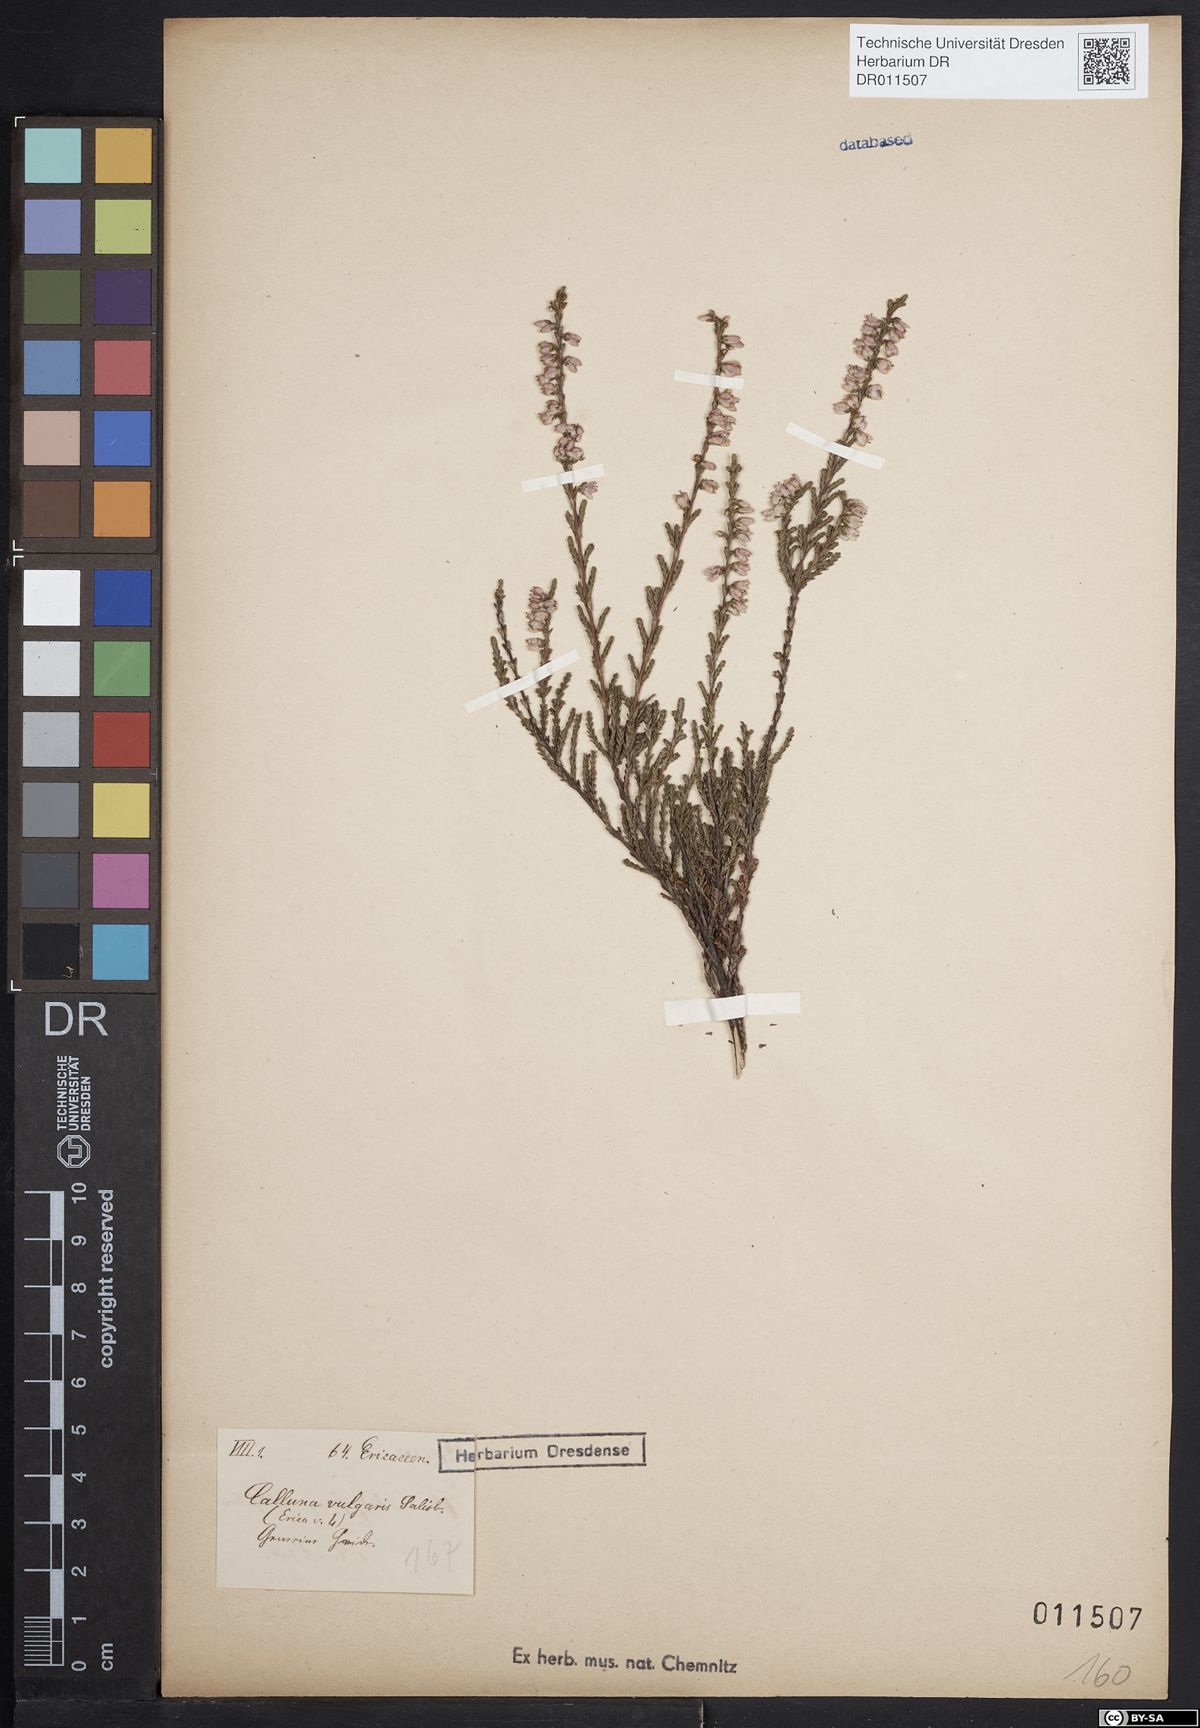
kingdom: Plantae
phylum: Tracheophyta
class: Magnoliopsida
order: Ericales
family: Ericaceae
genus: Calluna
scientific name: Calluna vulgaris
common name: Heather
